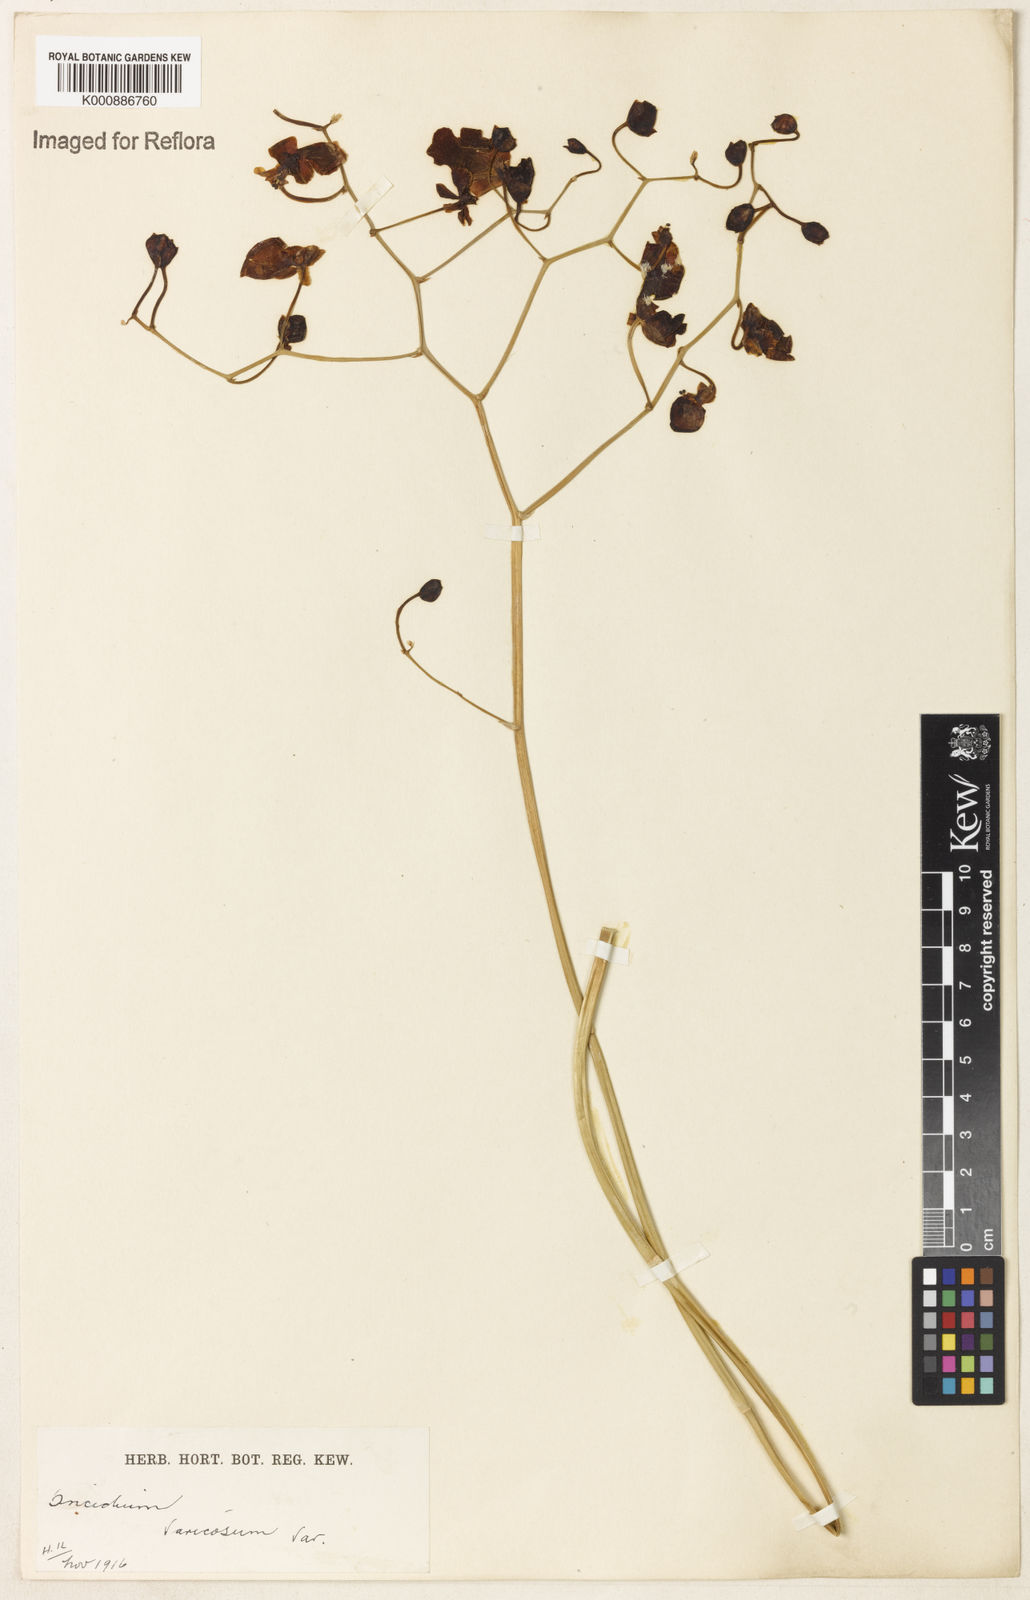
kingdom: Plantae
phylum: Tracheophyta
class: Liliopsida
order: Asparagales
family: Orchidaceae
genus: Gomesa
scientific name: Gomesa varicosa
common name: Dancing ladies
